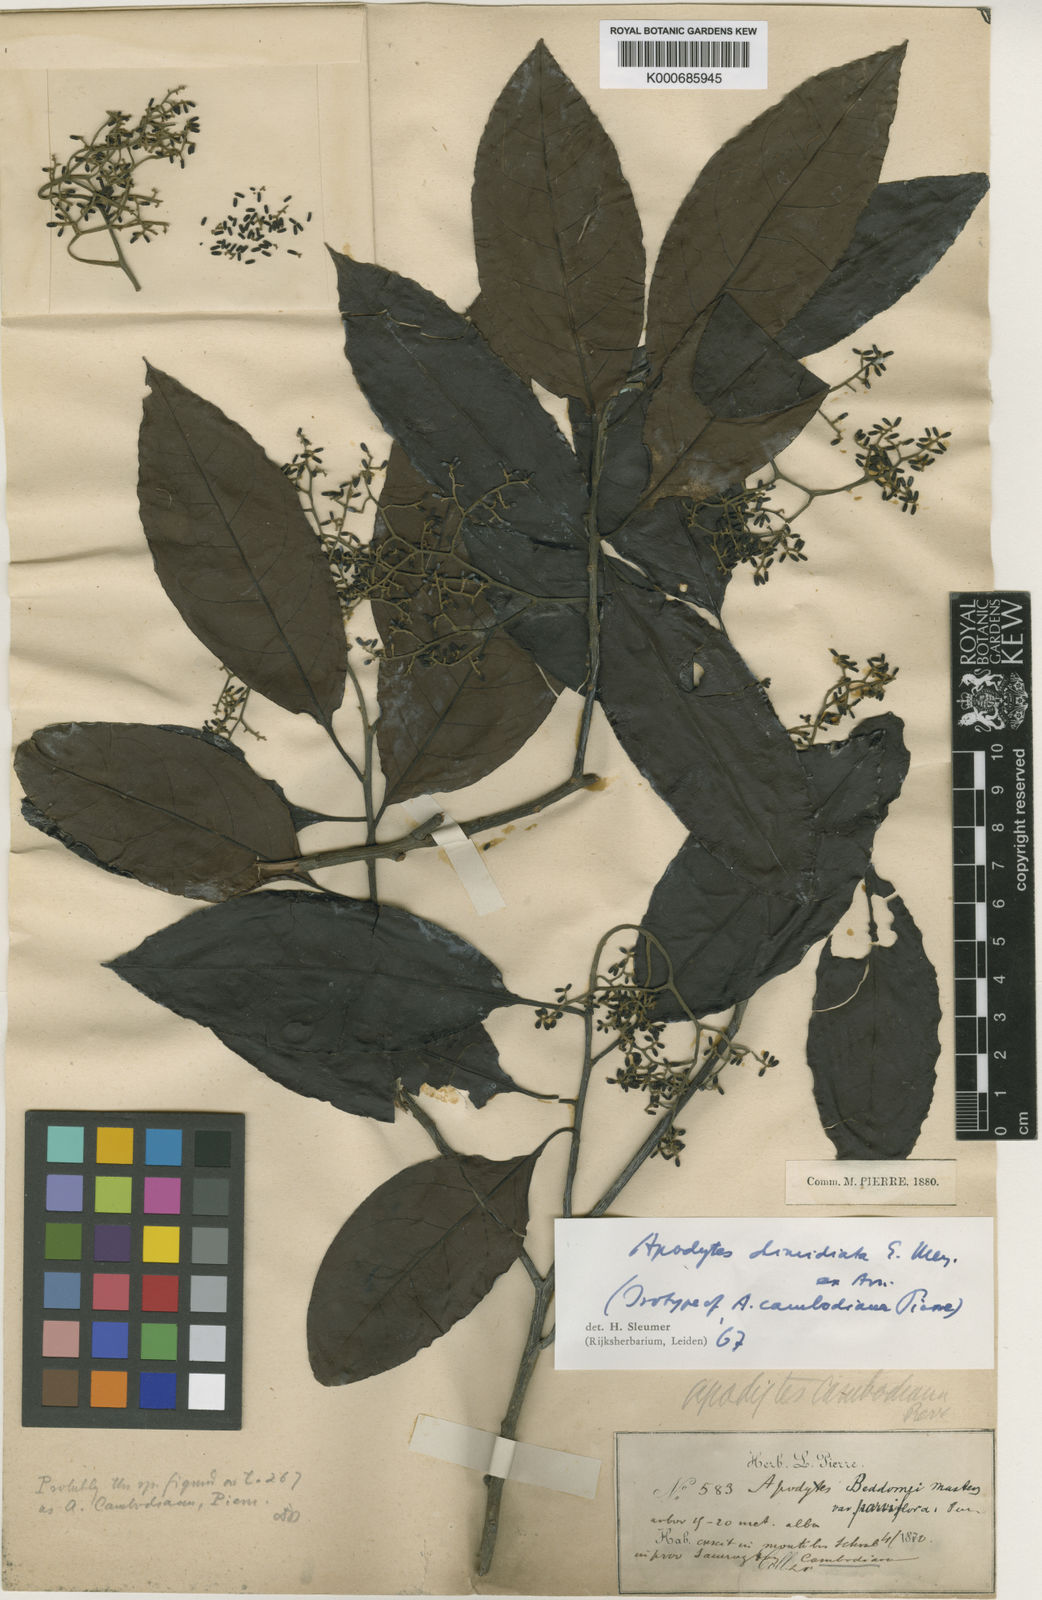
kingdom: Plantae
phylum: Tracheophyta
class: Magnoliopsida
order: Metteniusales
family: Metteniusaceae
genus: Apodytes
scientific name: Apodytes dimidiata
